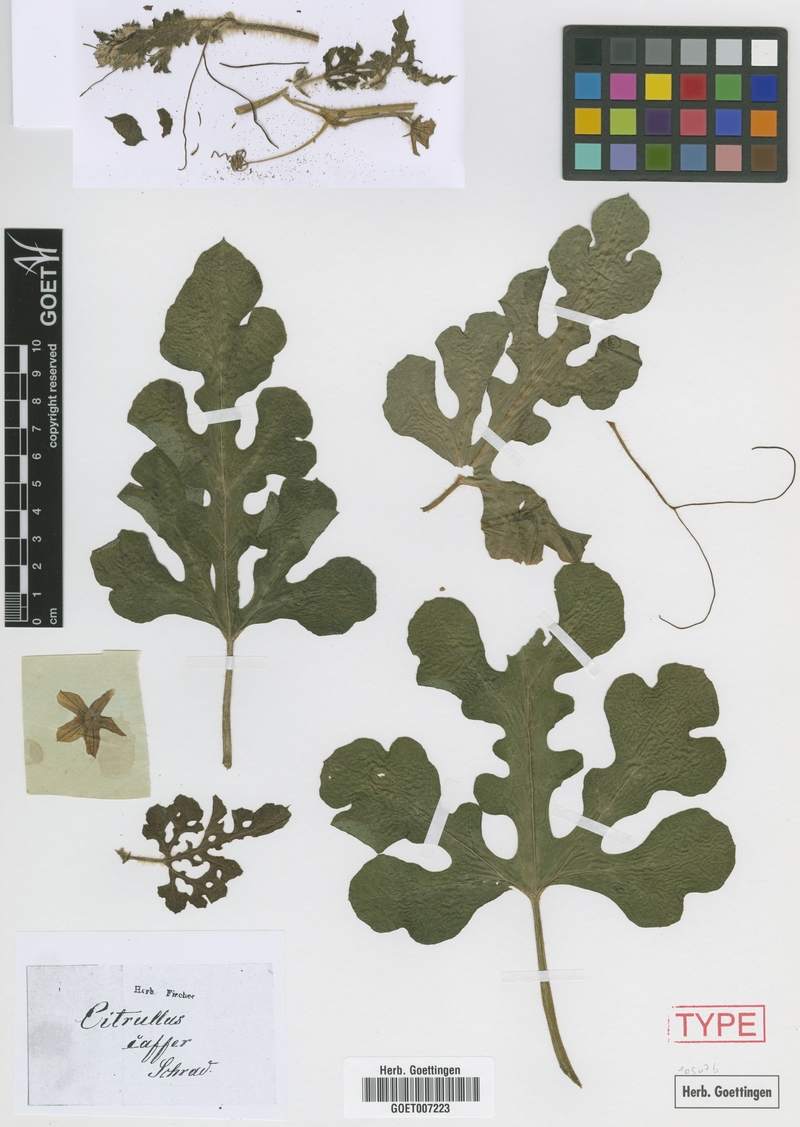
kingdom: Plantae
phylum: Tracheophyta
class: Magnoliopsida
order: Cucurbitales
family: Cucurbitaceae
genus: Citrullus
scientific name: Citrullus amarus
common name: Fodder-melon
